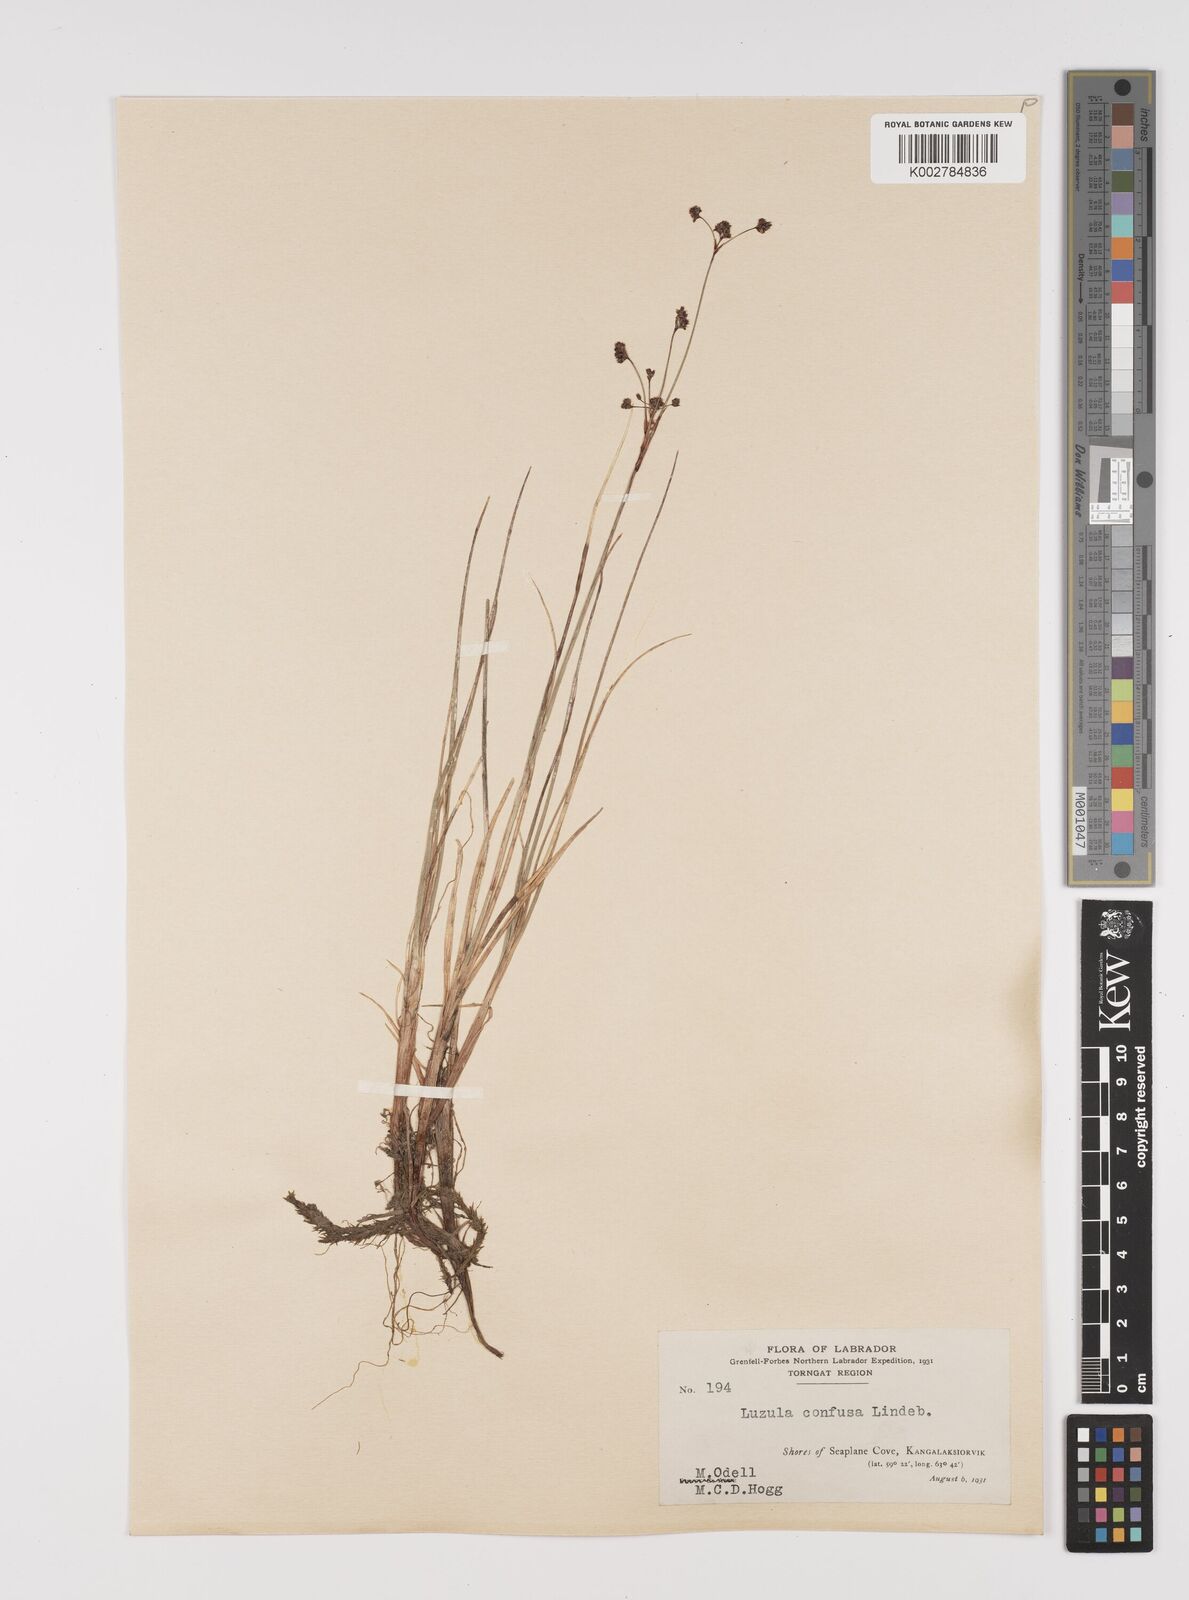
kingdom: Plantae
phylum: Tracheophyta
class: Liliopsida
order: Poales
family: Juncaceae
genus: Luzula
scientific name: Luzula confusa
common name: Northern wood rush
